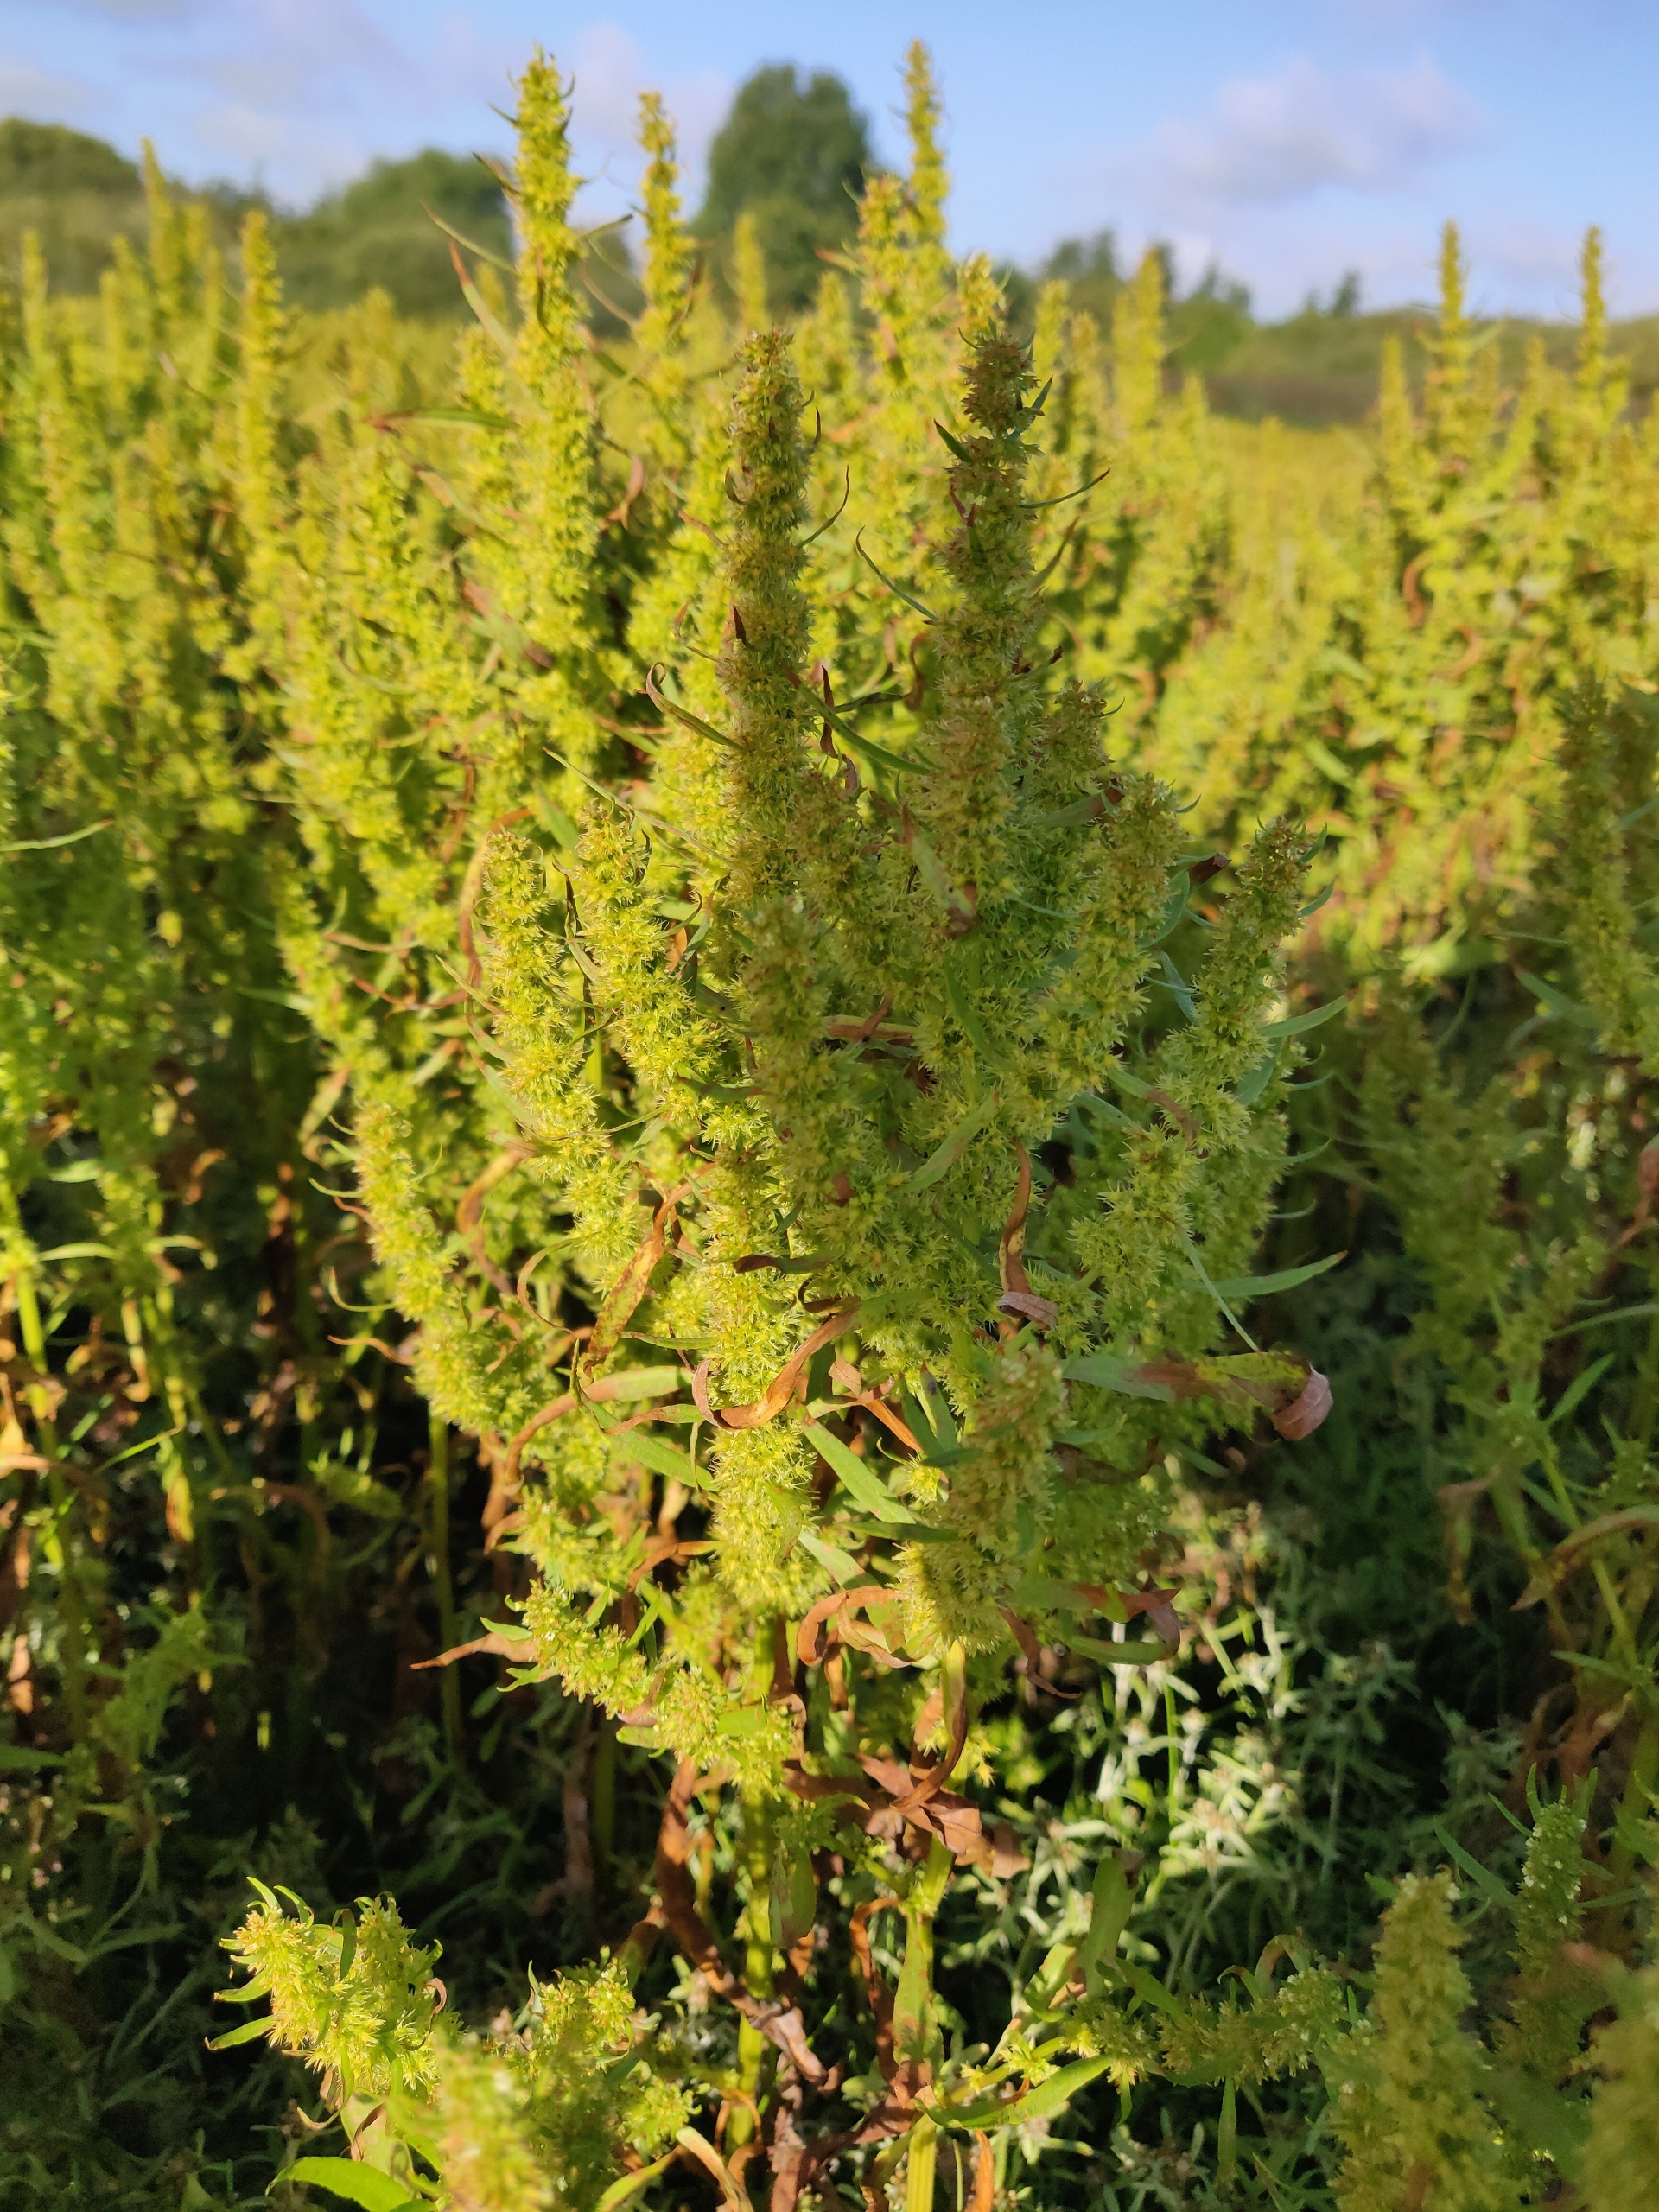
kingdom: Plantae
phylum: Tracheophyta
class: Magnoliopsida
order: Caryophyllales
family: Polygonaceae
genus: Rumex
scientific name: Rumex maritimus
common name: Strand-skræppe
